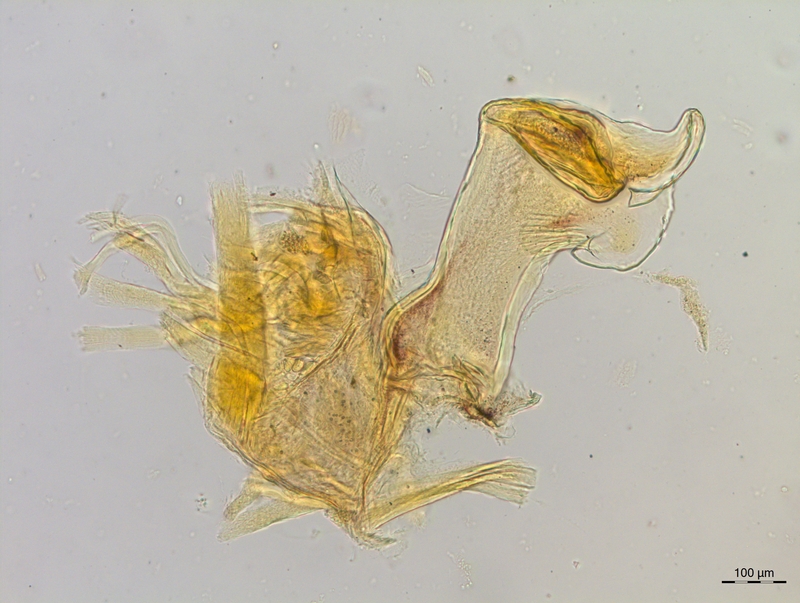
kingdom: Animalia
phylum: Arthropoda
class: Diplopoda
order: Chordeumatida
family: Craspedosomatidae
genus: Craspedosoma
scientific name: Craspedosoma rawlinsii
